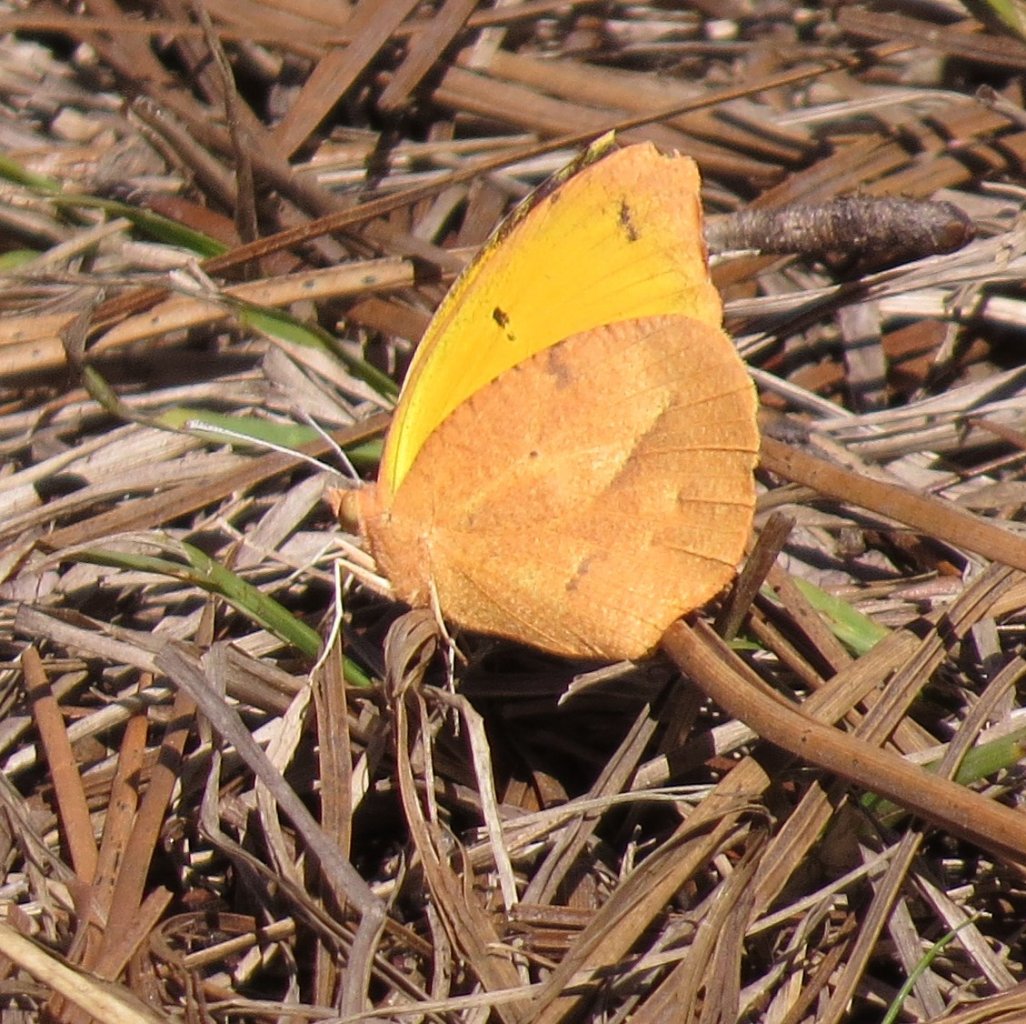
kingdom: Animalia
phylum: Arthropoda
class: Insecta
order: Lepidoptera
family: Pieridae
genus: Abaeis
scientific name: Abaeis nicippe
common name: Sleepy Orange
